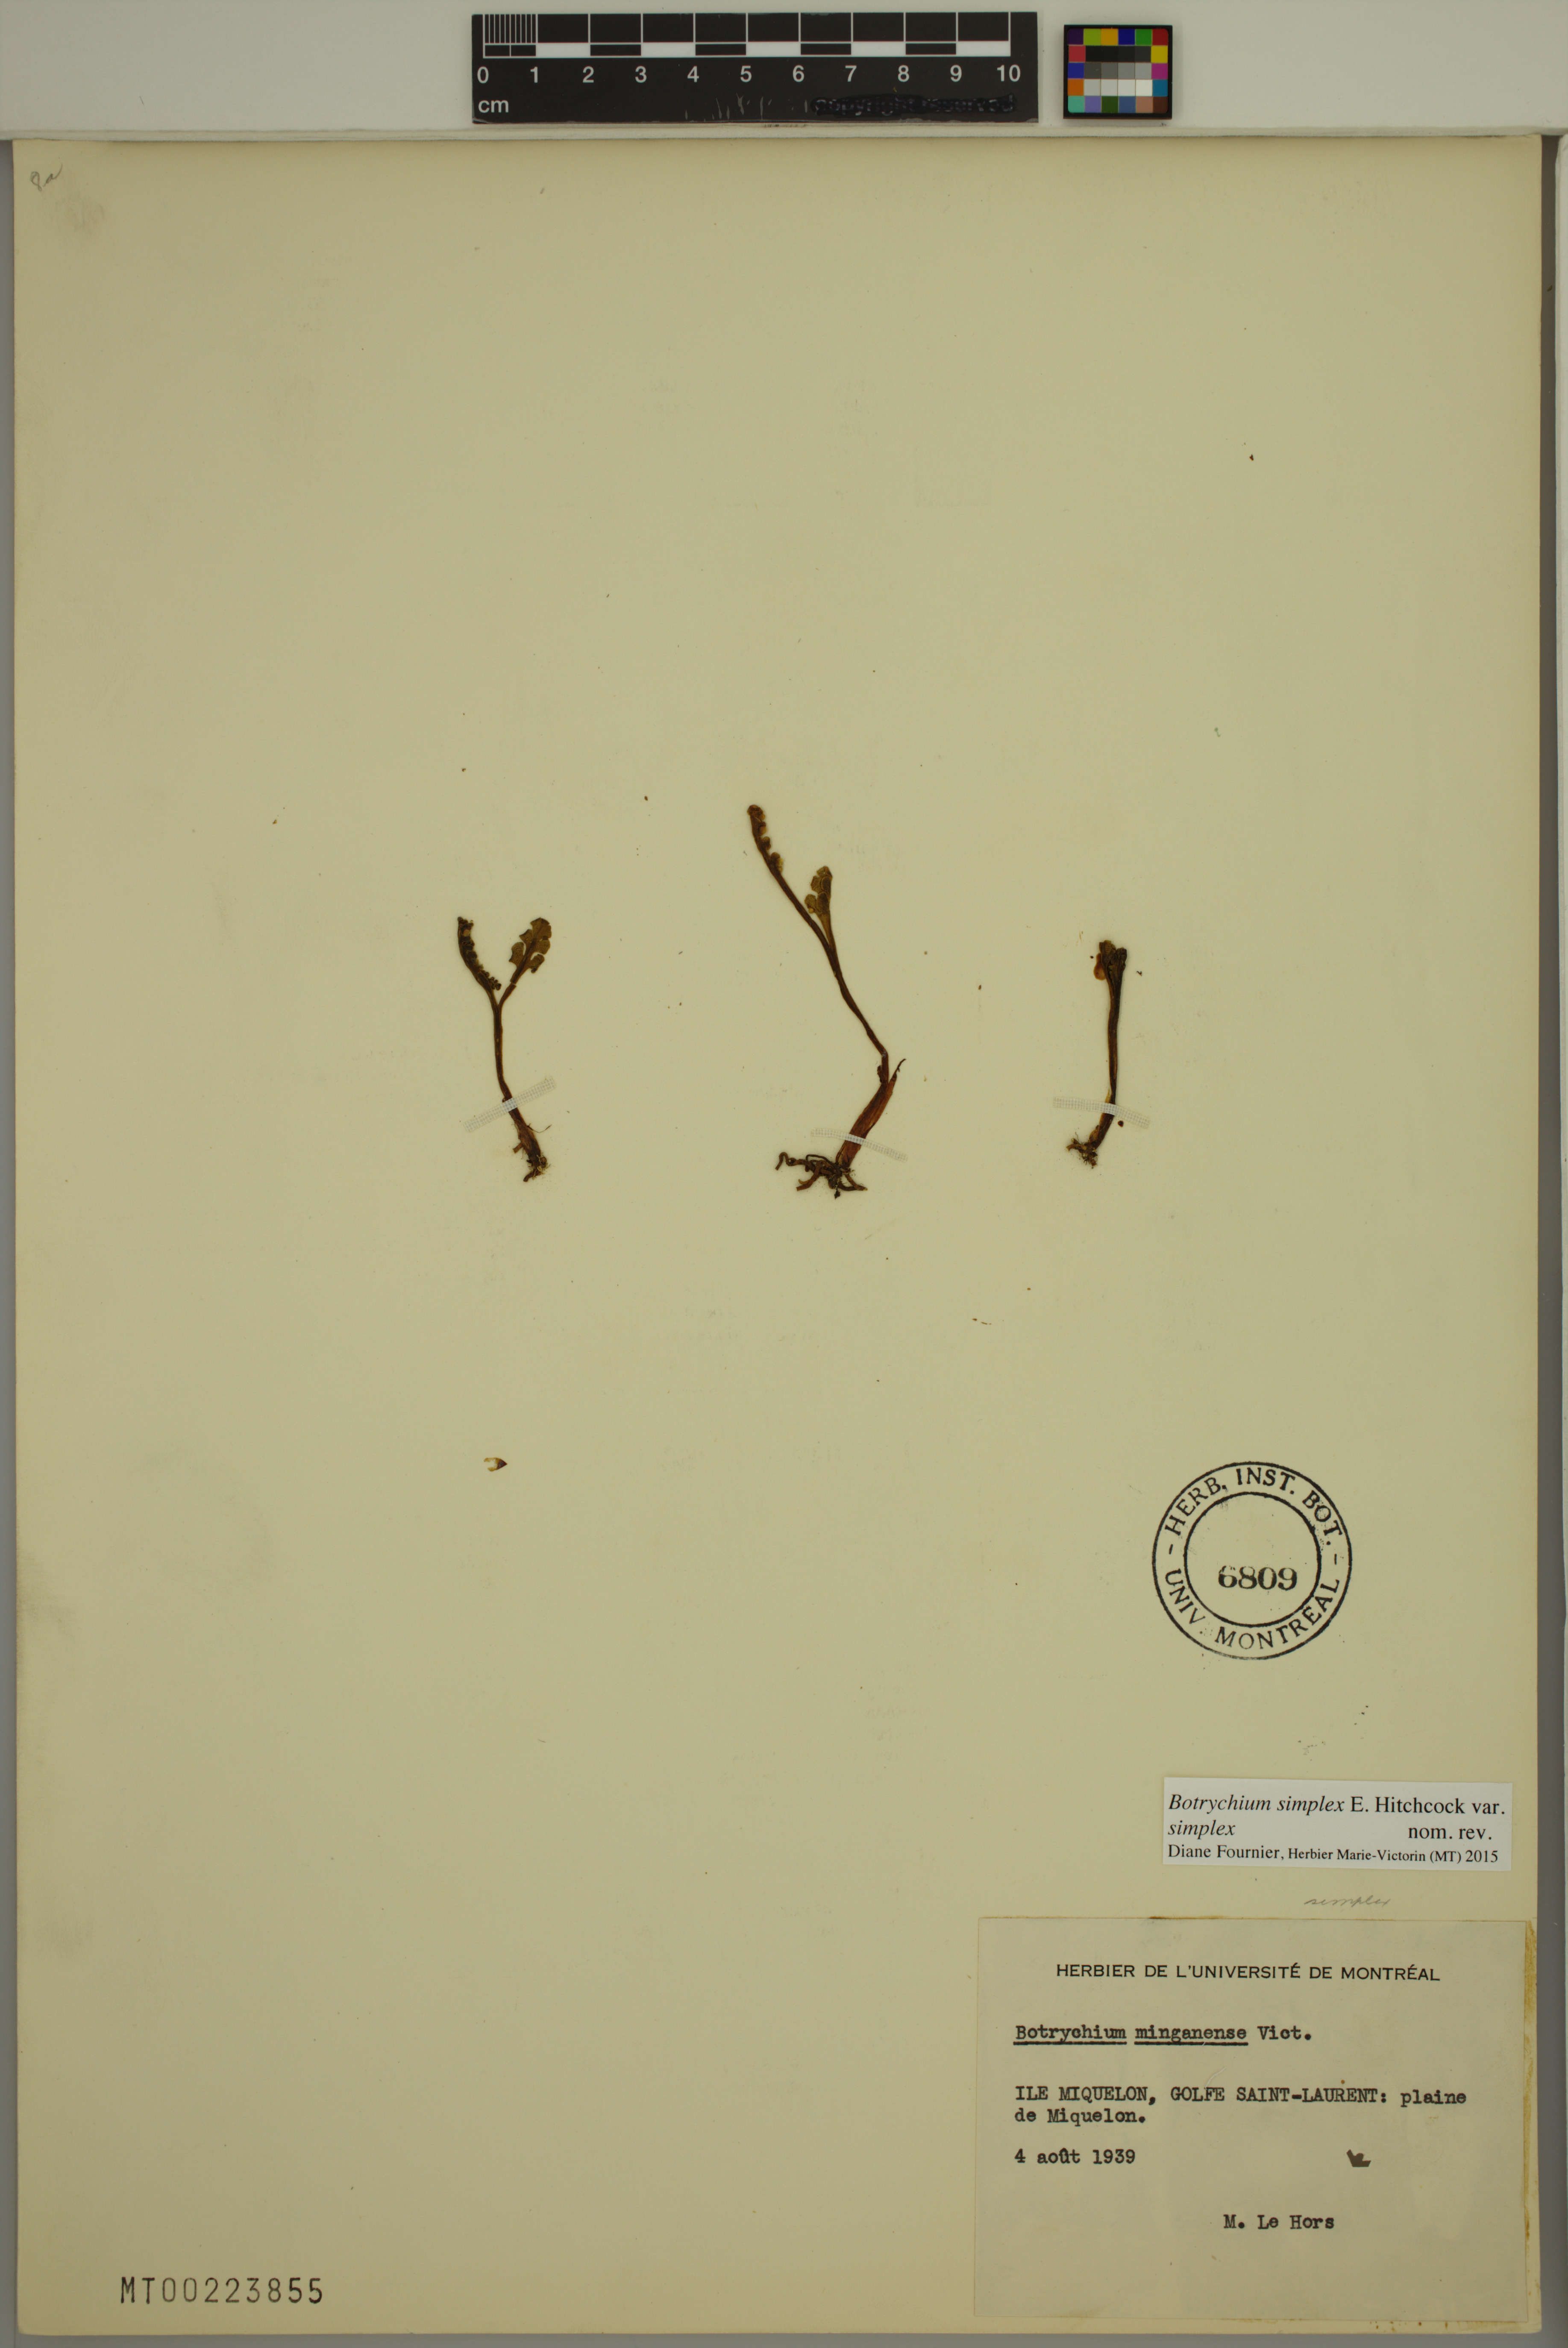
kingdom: Plantae
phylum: Tracheophyta
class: Polypodiopsida
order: Ophioglossales
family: Ophioglossaceae
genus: Botrychium
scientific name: Botrychium simplex
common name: Least moonwort
